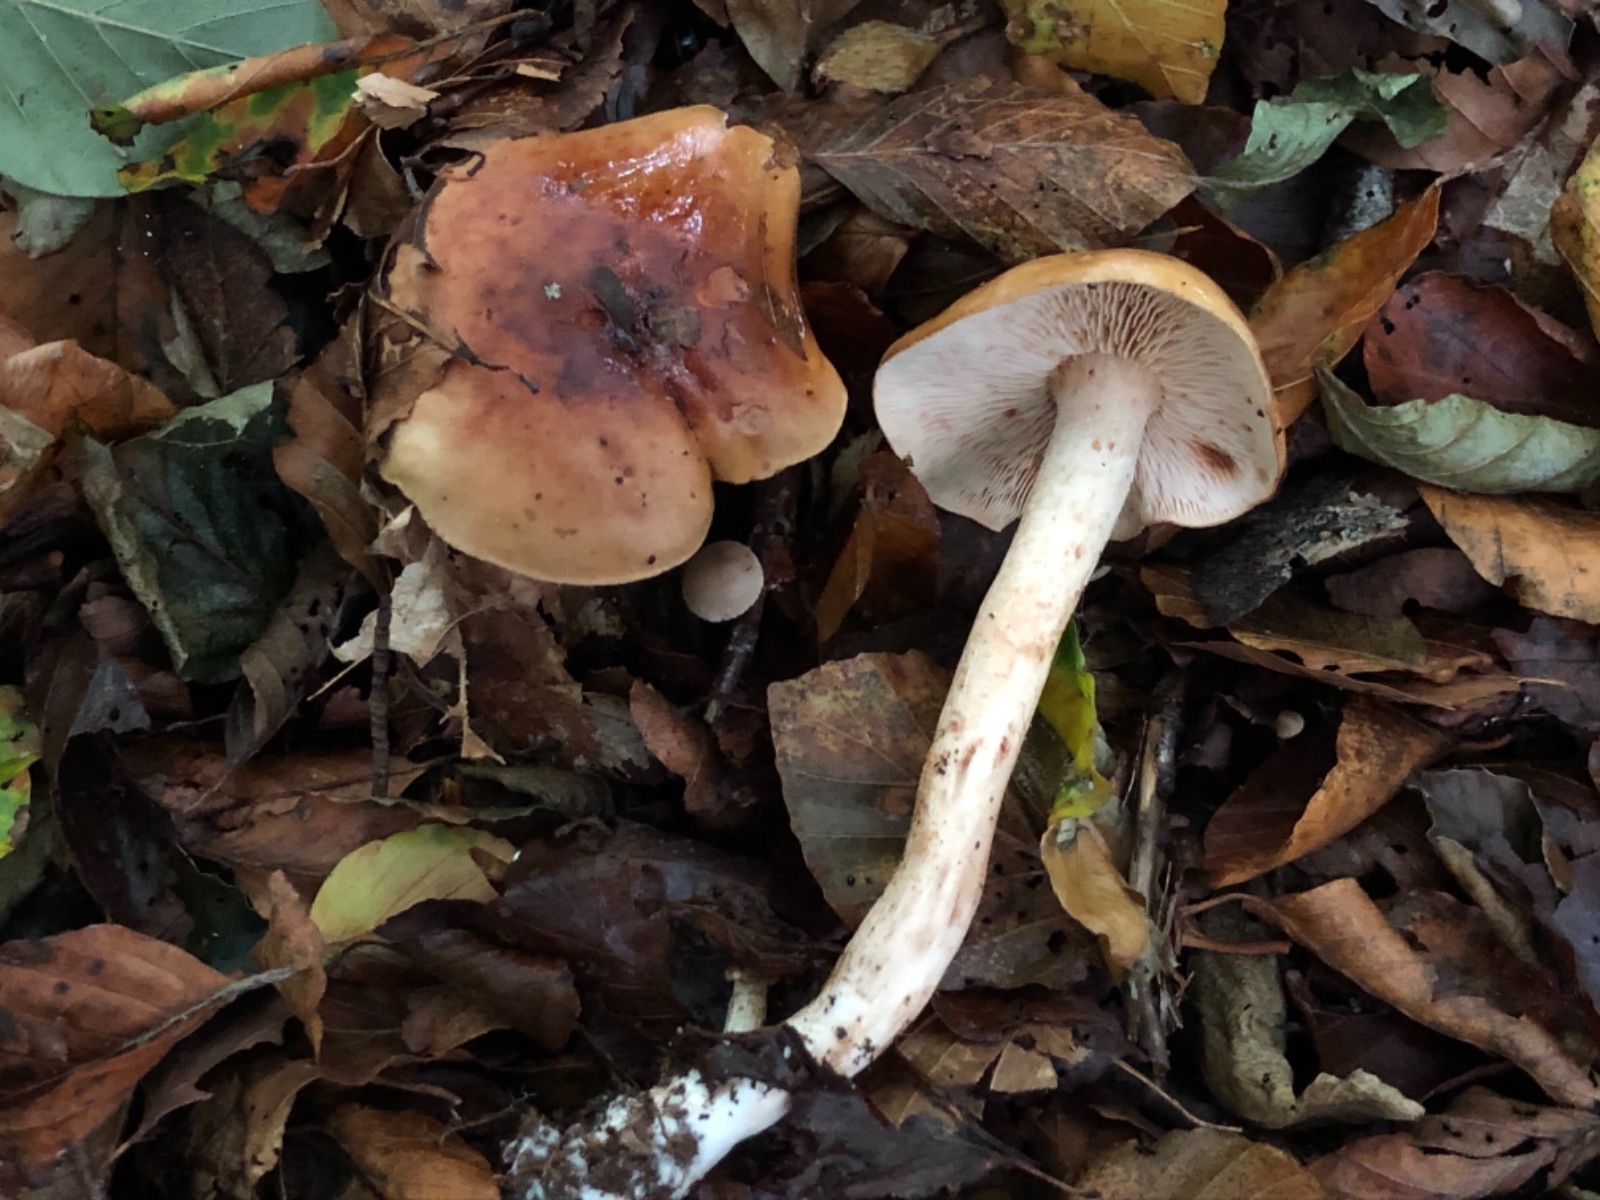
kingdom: Fungi
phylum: Basidiomycota
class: Agaricomycetes
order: Agaricales
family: Tricholomataceae
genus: Tricholoma
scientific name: Tricholoma ustale
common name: sveden ridderhat
